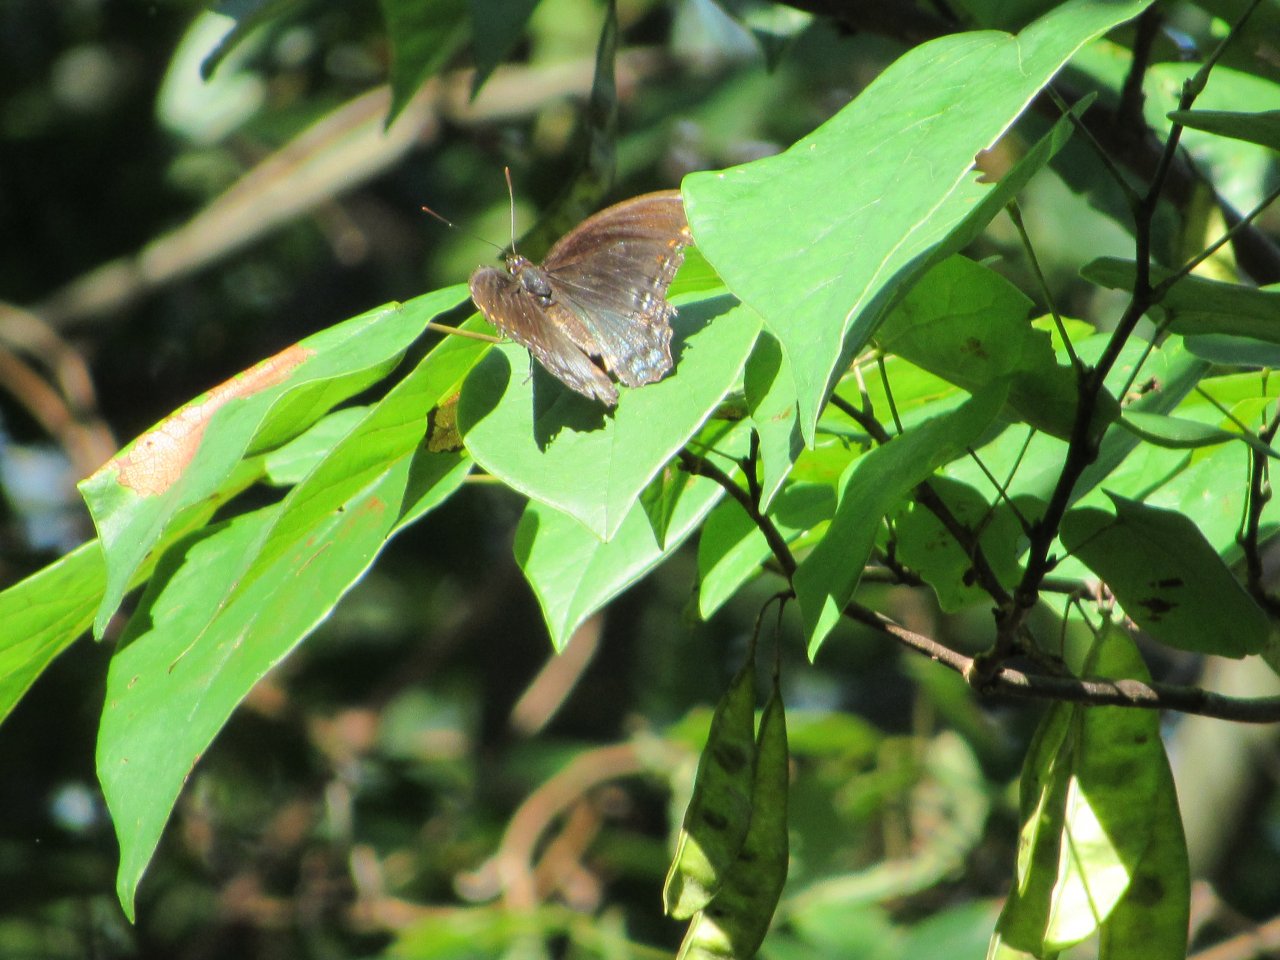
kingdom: Animalia
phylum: Arthropoda
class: Insecta
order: Lepidoptera
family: Nymphalidae
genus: Limenitis
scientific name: Limenitis astyanax
